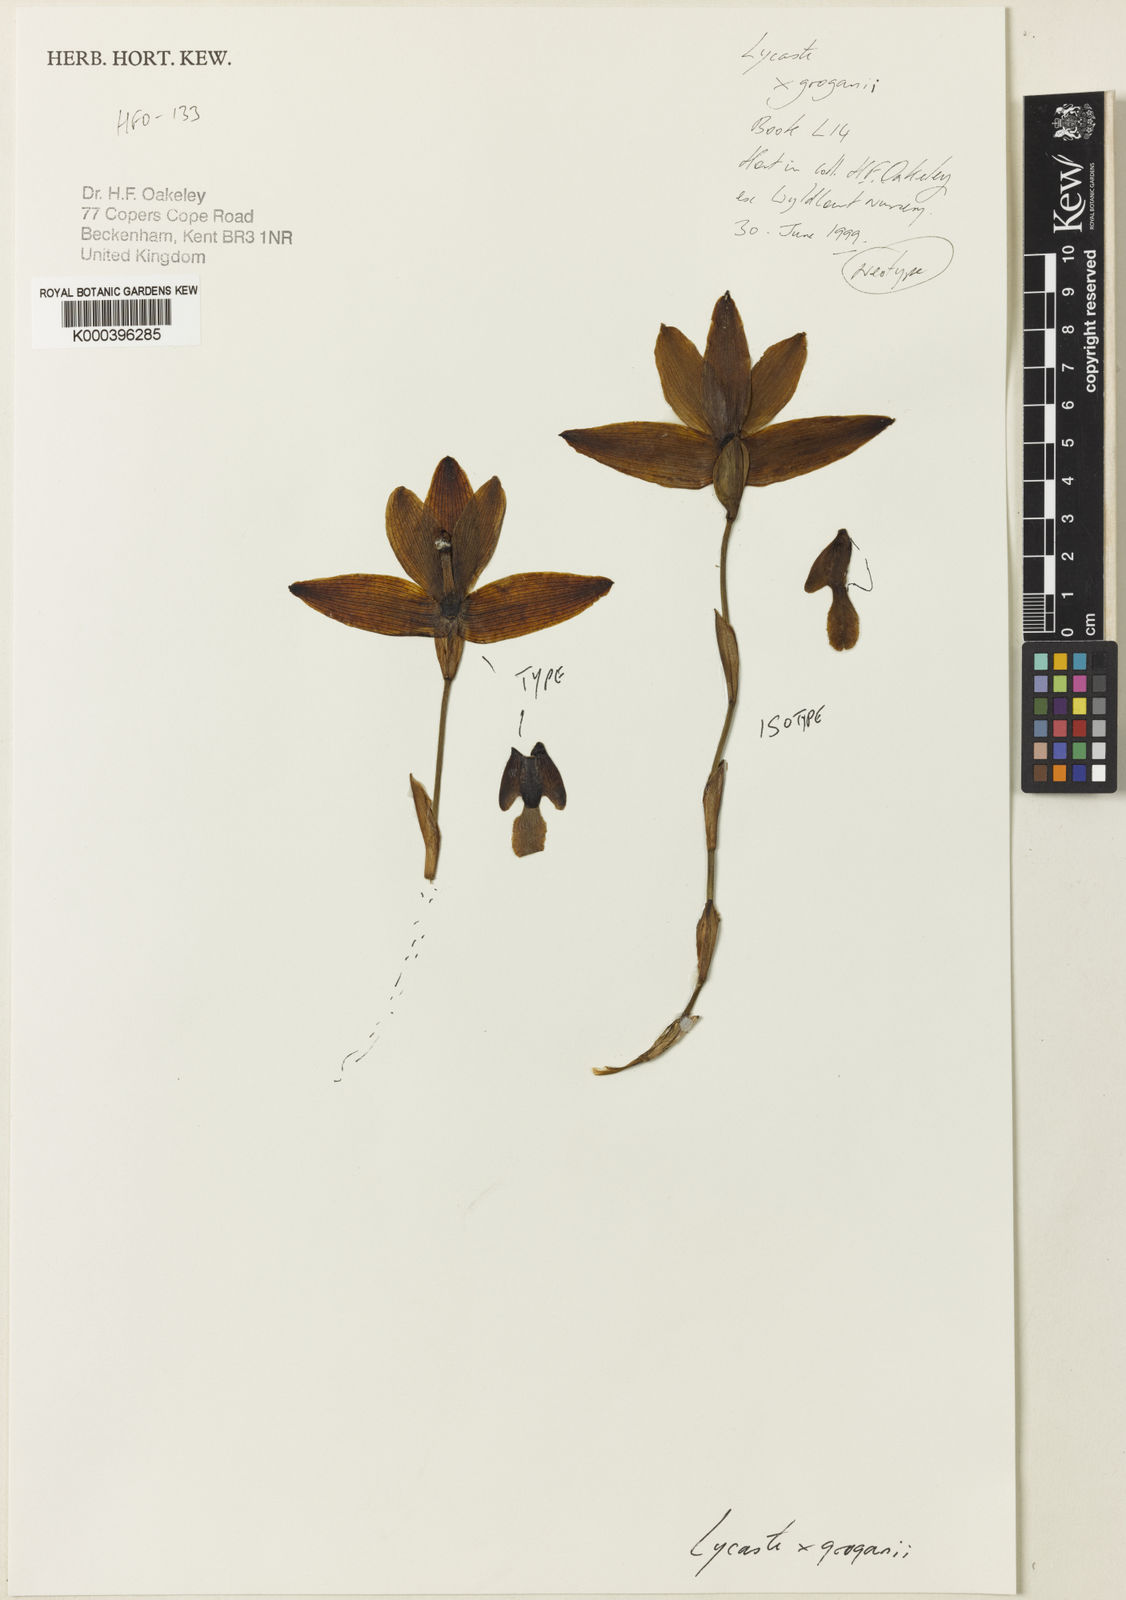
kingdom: Plantae
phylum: Tracheophyta
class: Liliopsida
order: Asparagales
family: Orchidaceae
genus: Lycaste
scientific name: Lycaste groganii
